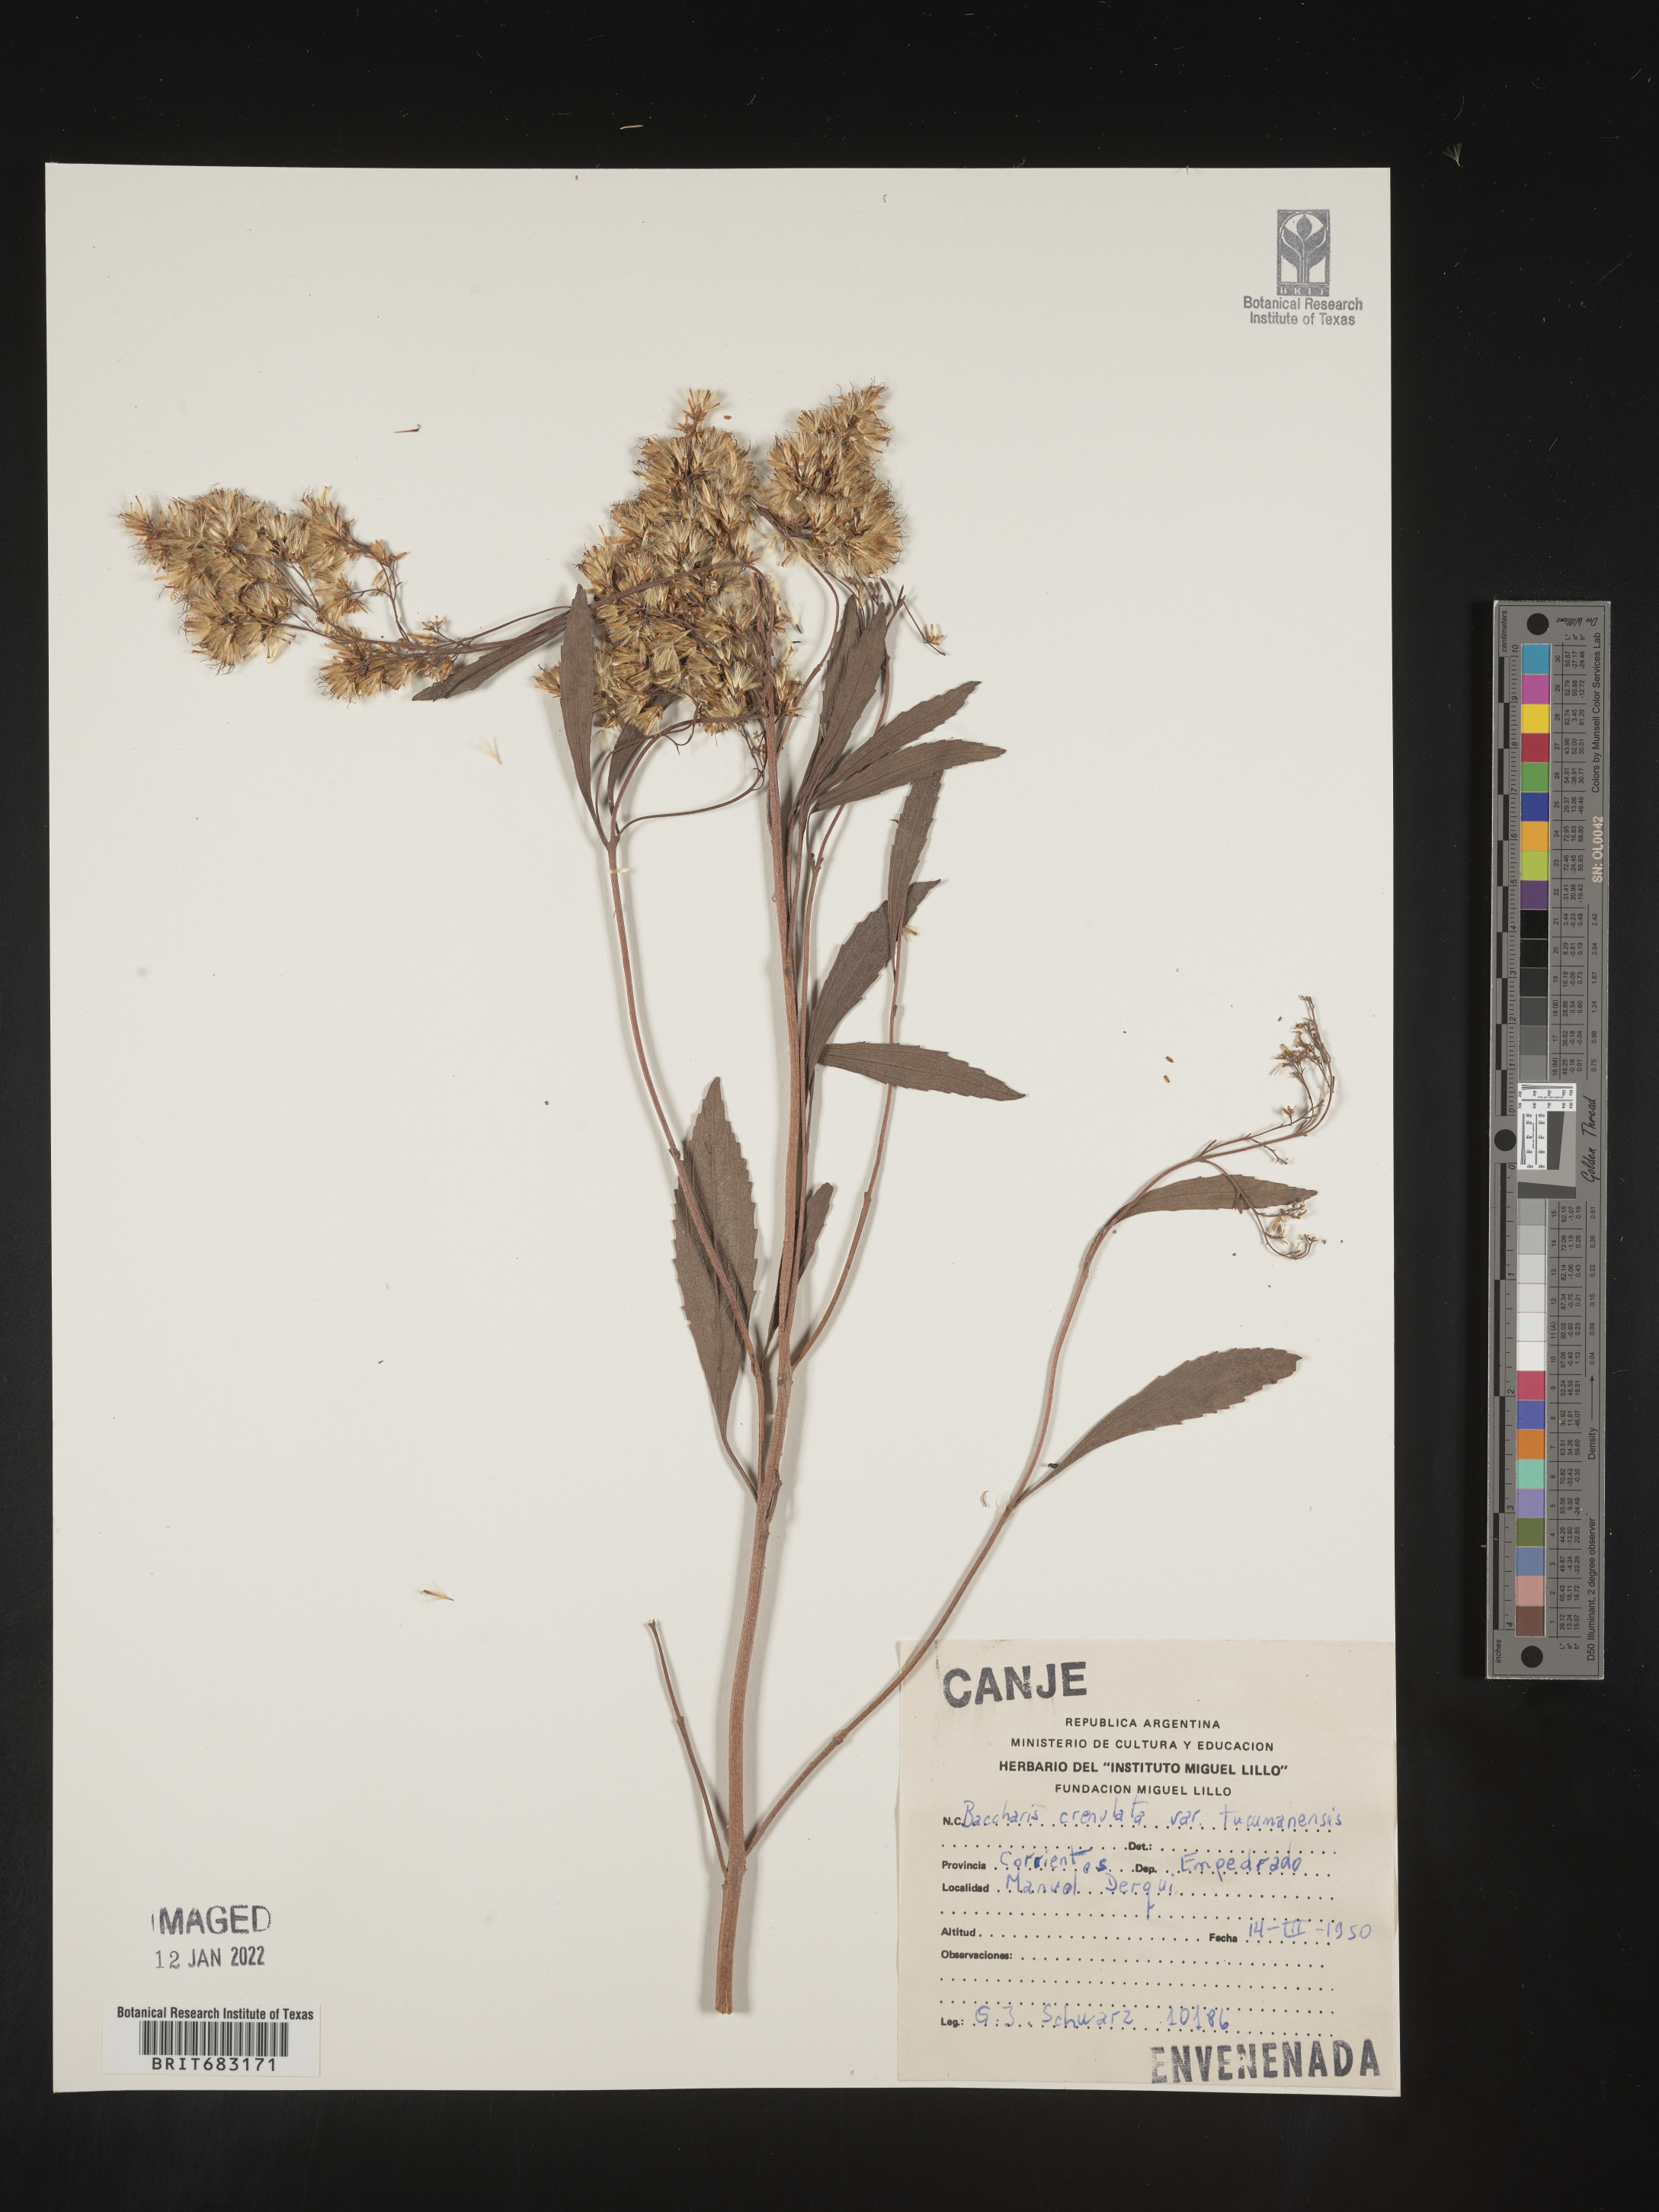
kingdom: Plantae
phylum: Tracheophyta
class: Magnoliopsida
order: Asterales
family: Asteraceae
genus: Baccharis
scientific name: Baccharis
